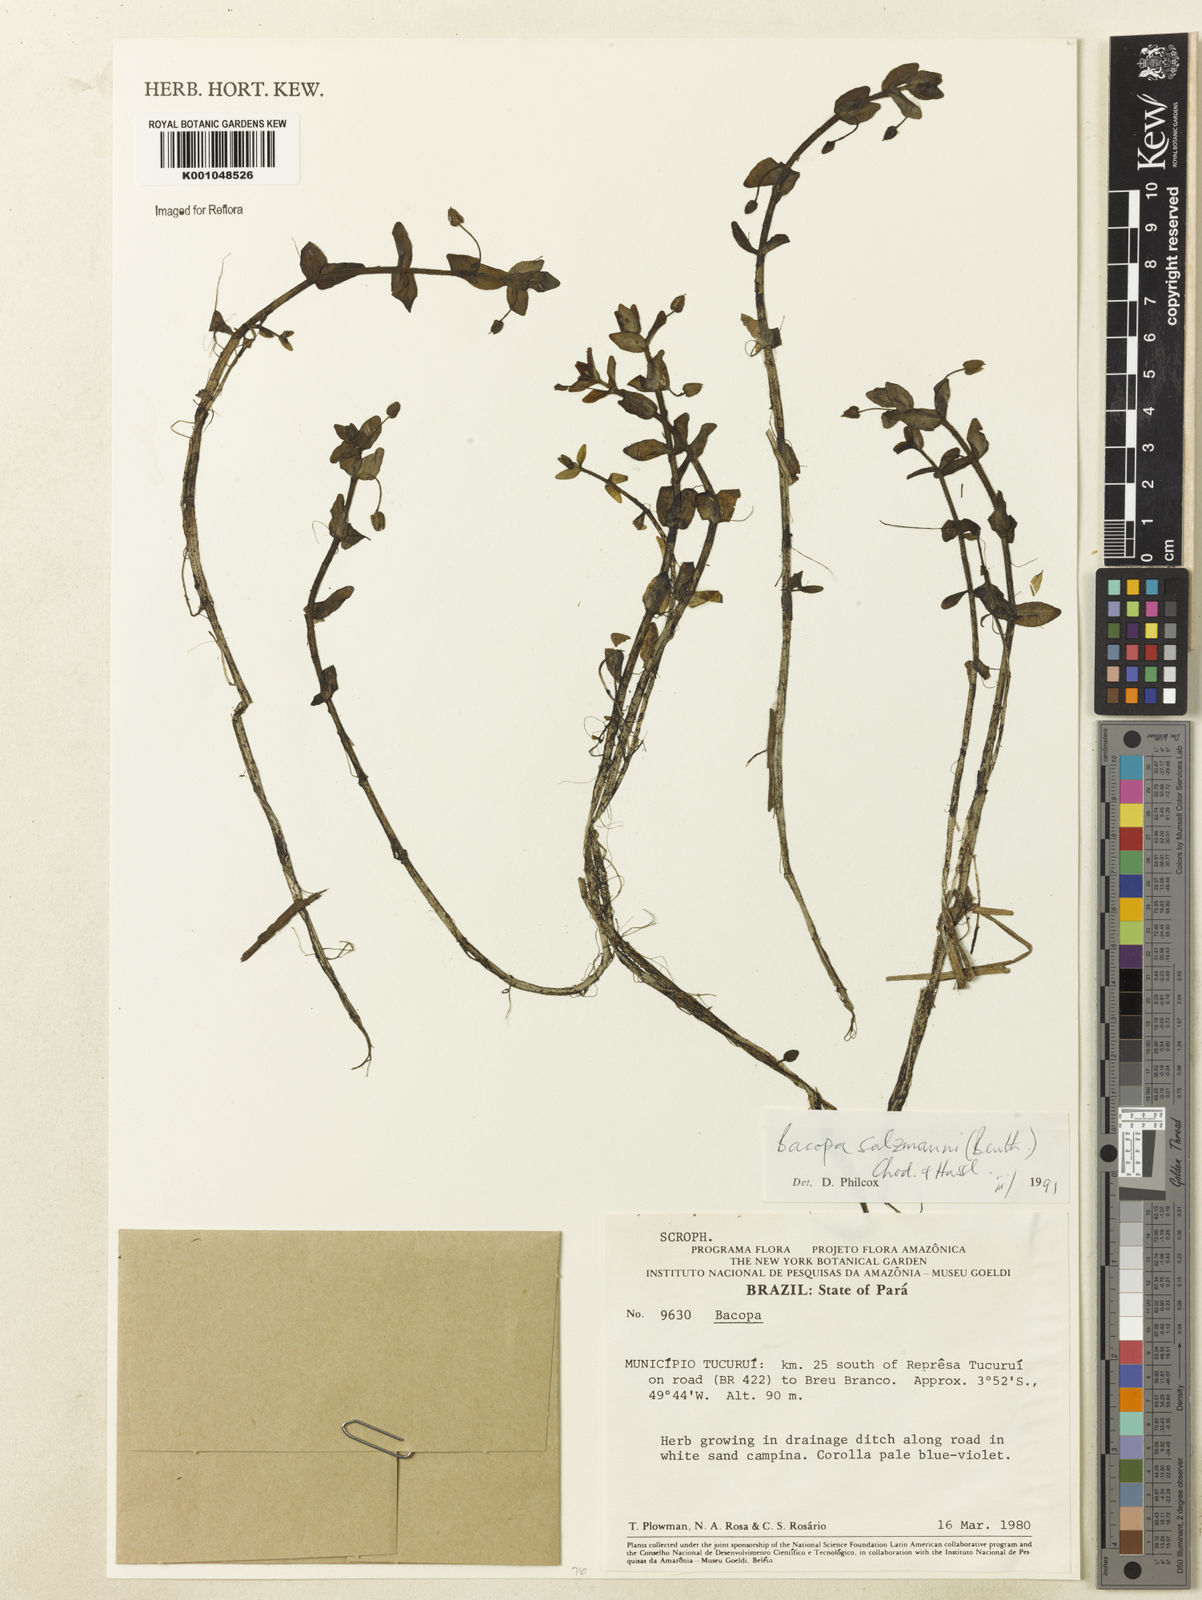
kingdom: Plantae
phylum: Tracheophyta
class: Magnoliopsida
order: Lamiales
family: Plantaginaceae
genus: Bacopa
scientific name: Bacopa salzmannii
